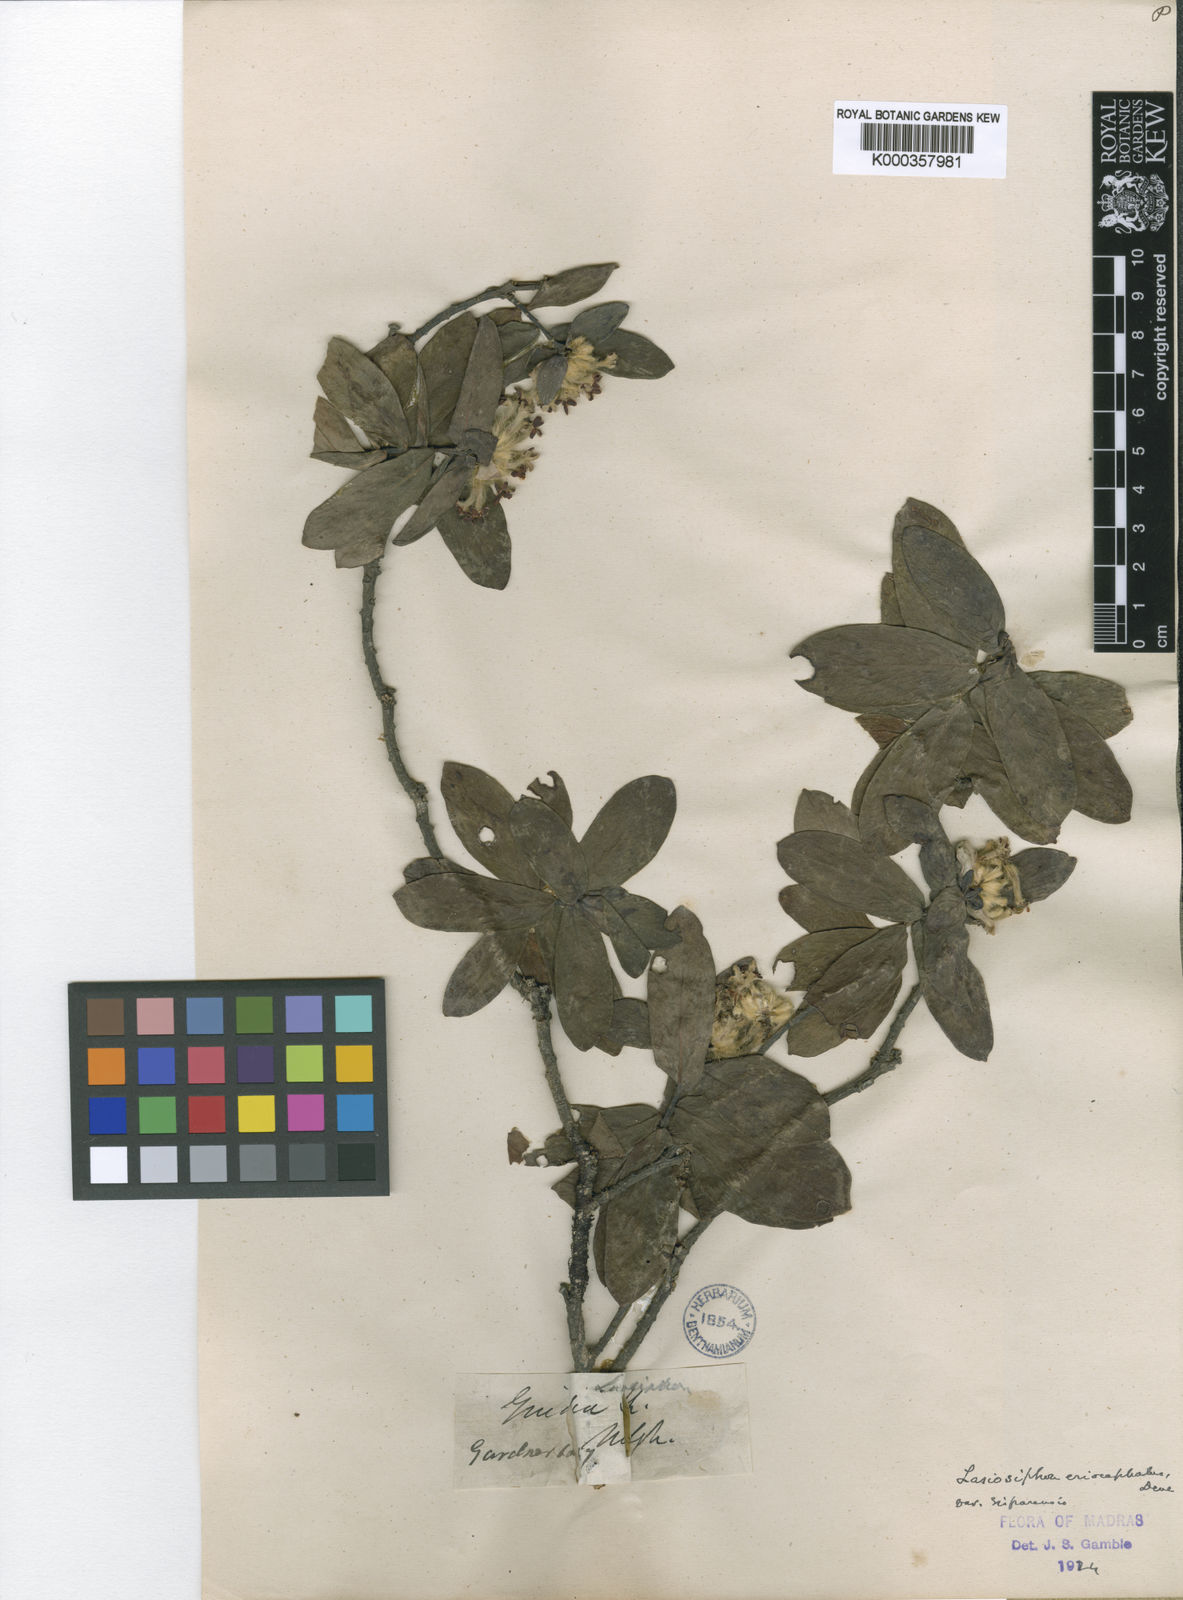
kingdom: Plantae
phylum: Tracheophyta
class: Magnoliopsida
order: Malvales
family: Thymelaeaceae
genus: Gnidia
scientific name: Gnidia glauca
